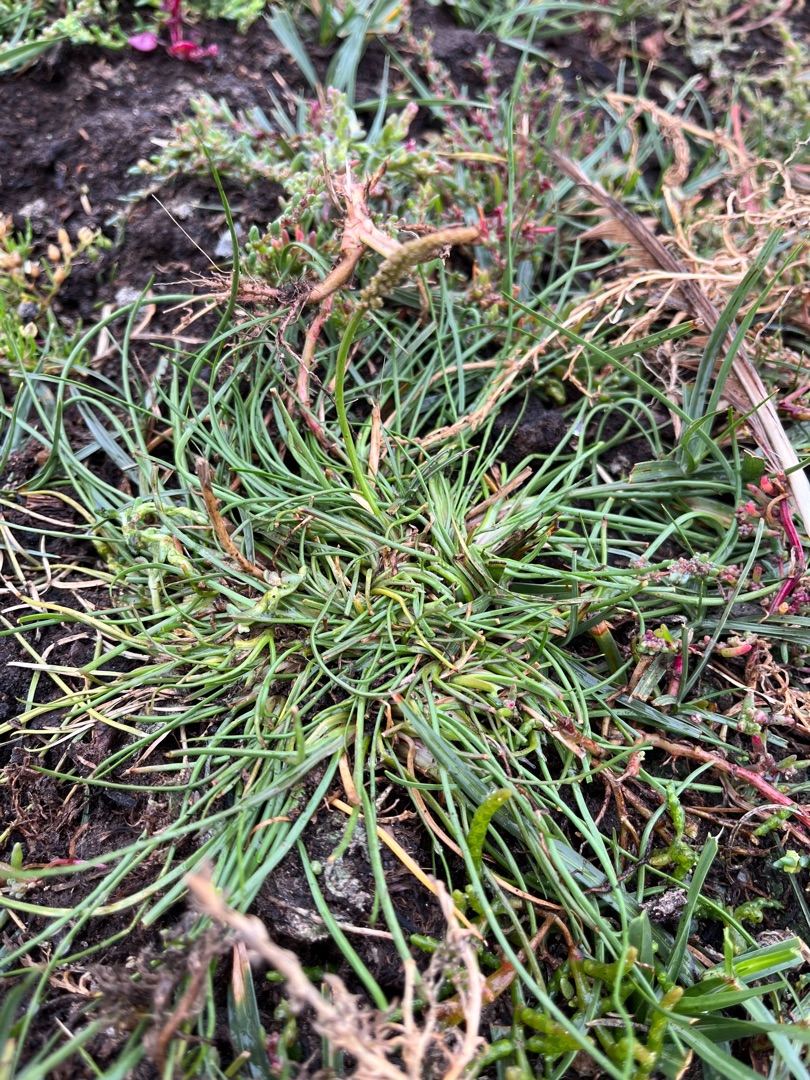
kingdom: Plantae
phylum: Tracheophyta
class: Liliopsida
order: Alismatales
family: Juncaginaceae
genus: Triglochin
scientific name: Triglochin maritima
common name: Strand-trehage
